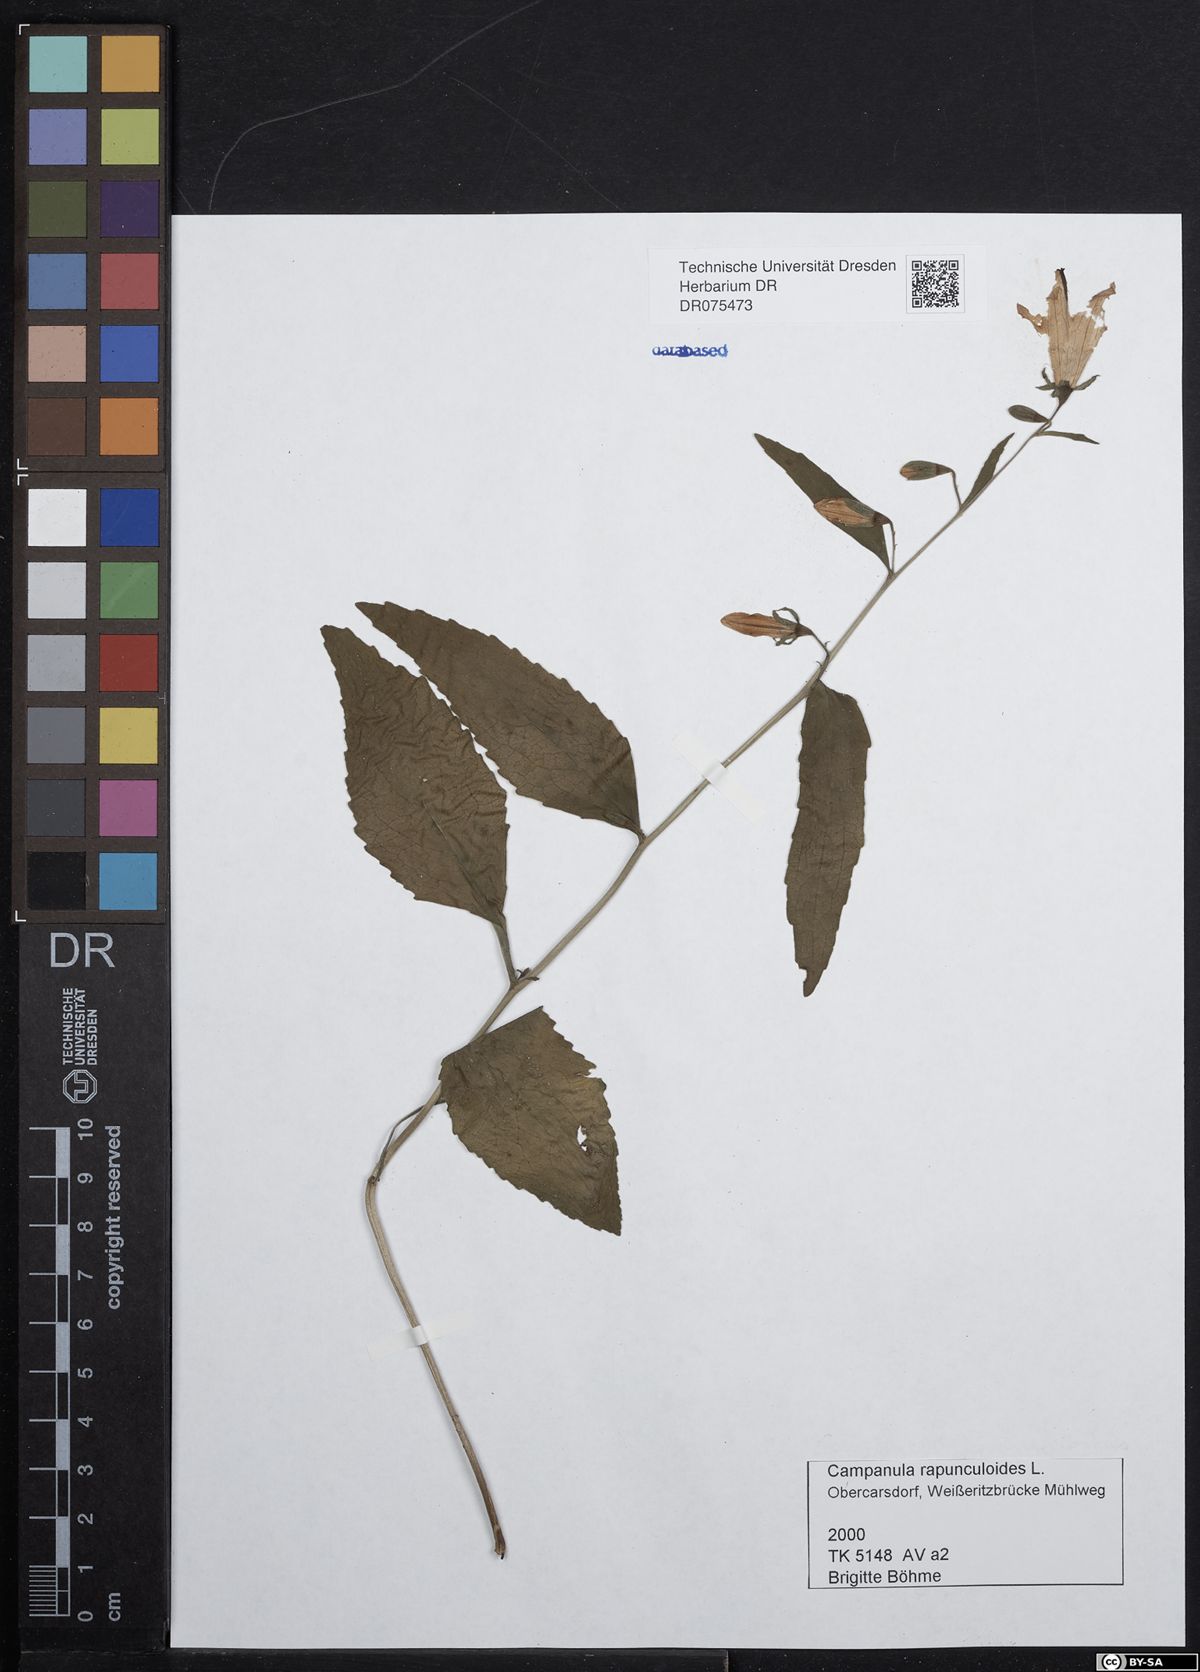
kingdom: Plantae
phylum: Tracheophyta
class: Magnoliopsida
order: Asterales
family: Campanulaceae
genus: Campanula
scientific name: Campanula rapunculoides
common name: Creeping bellflower
